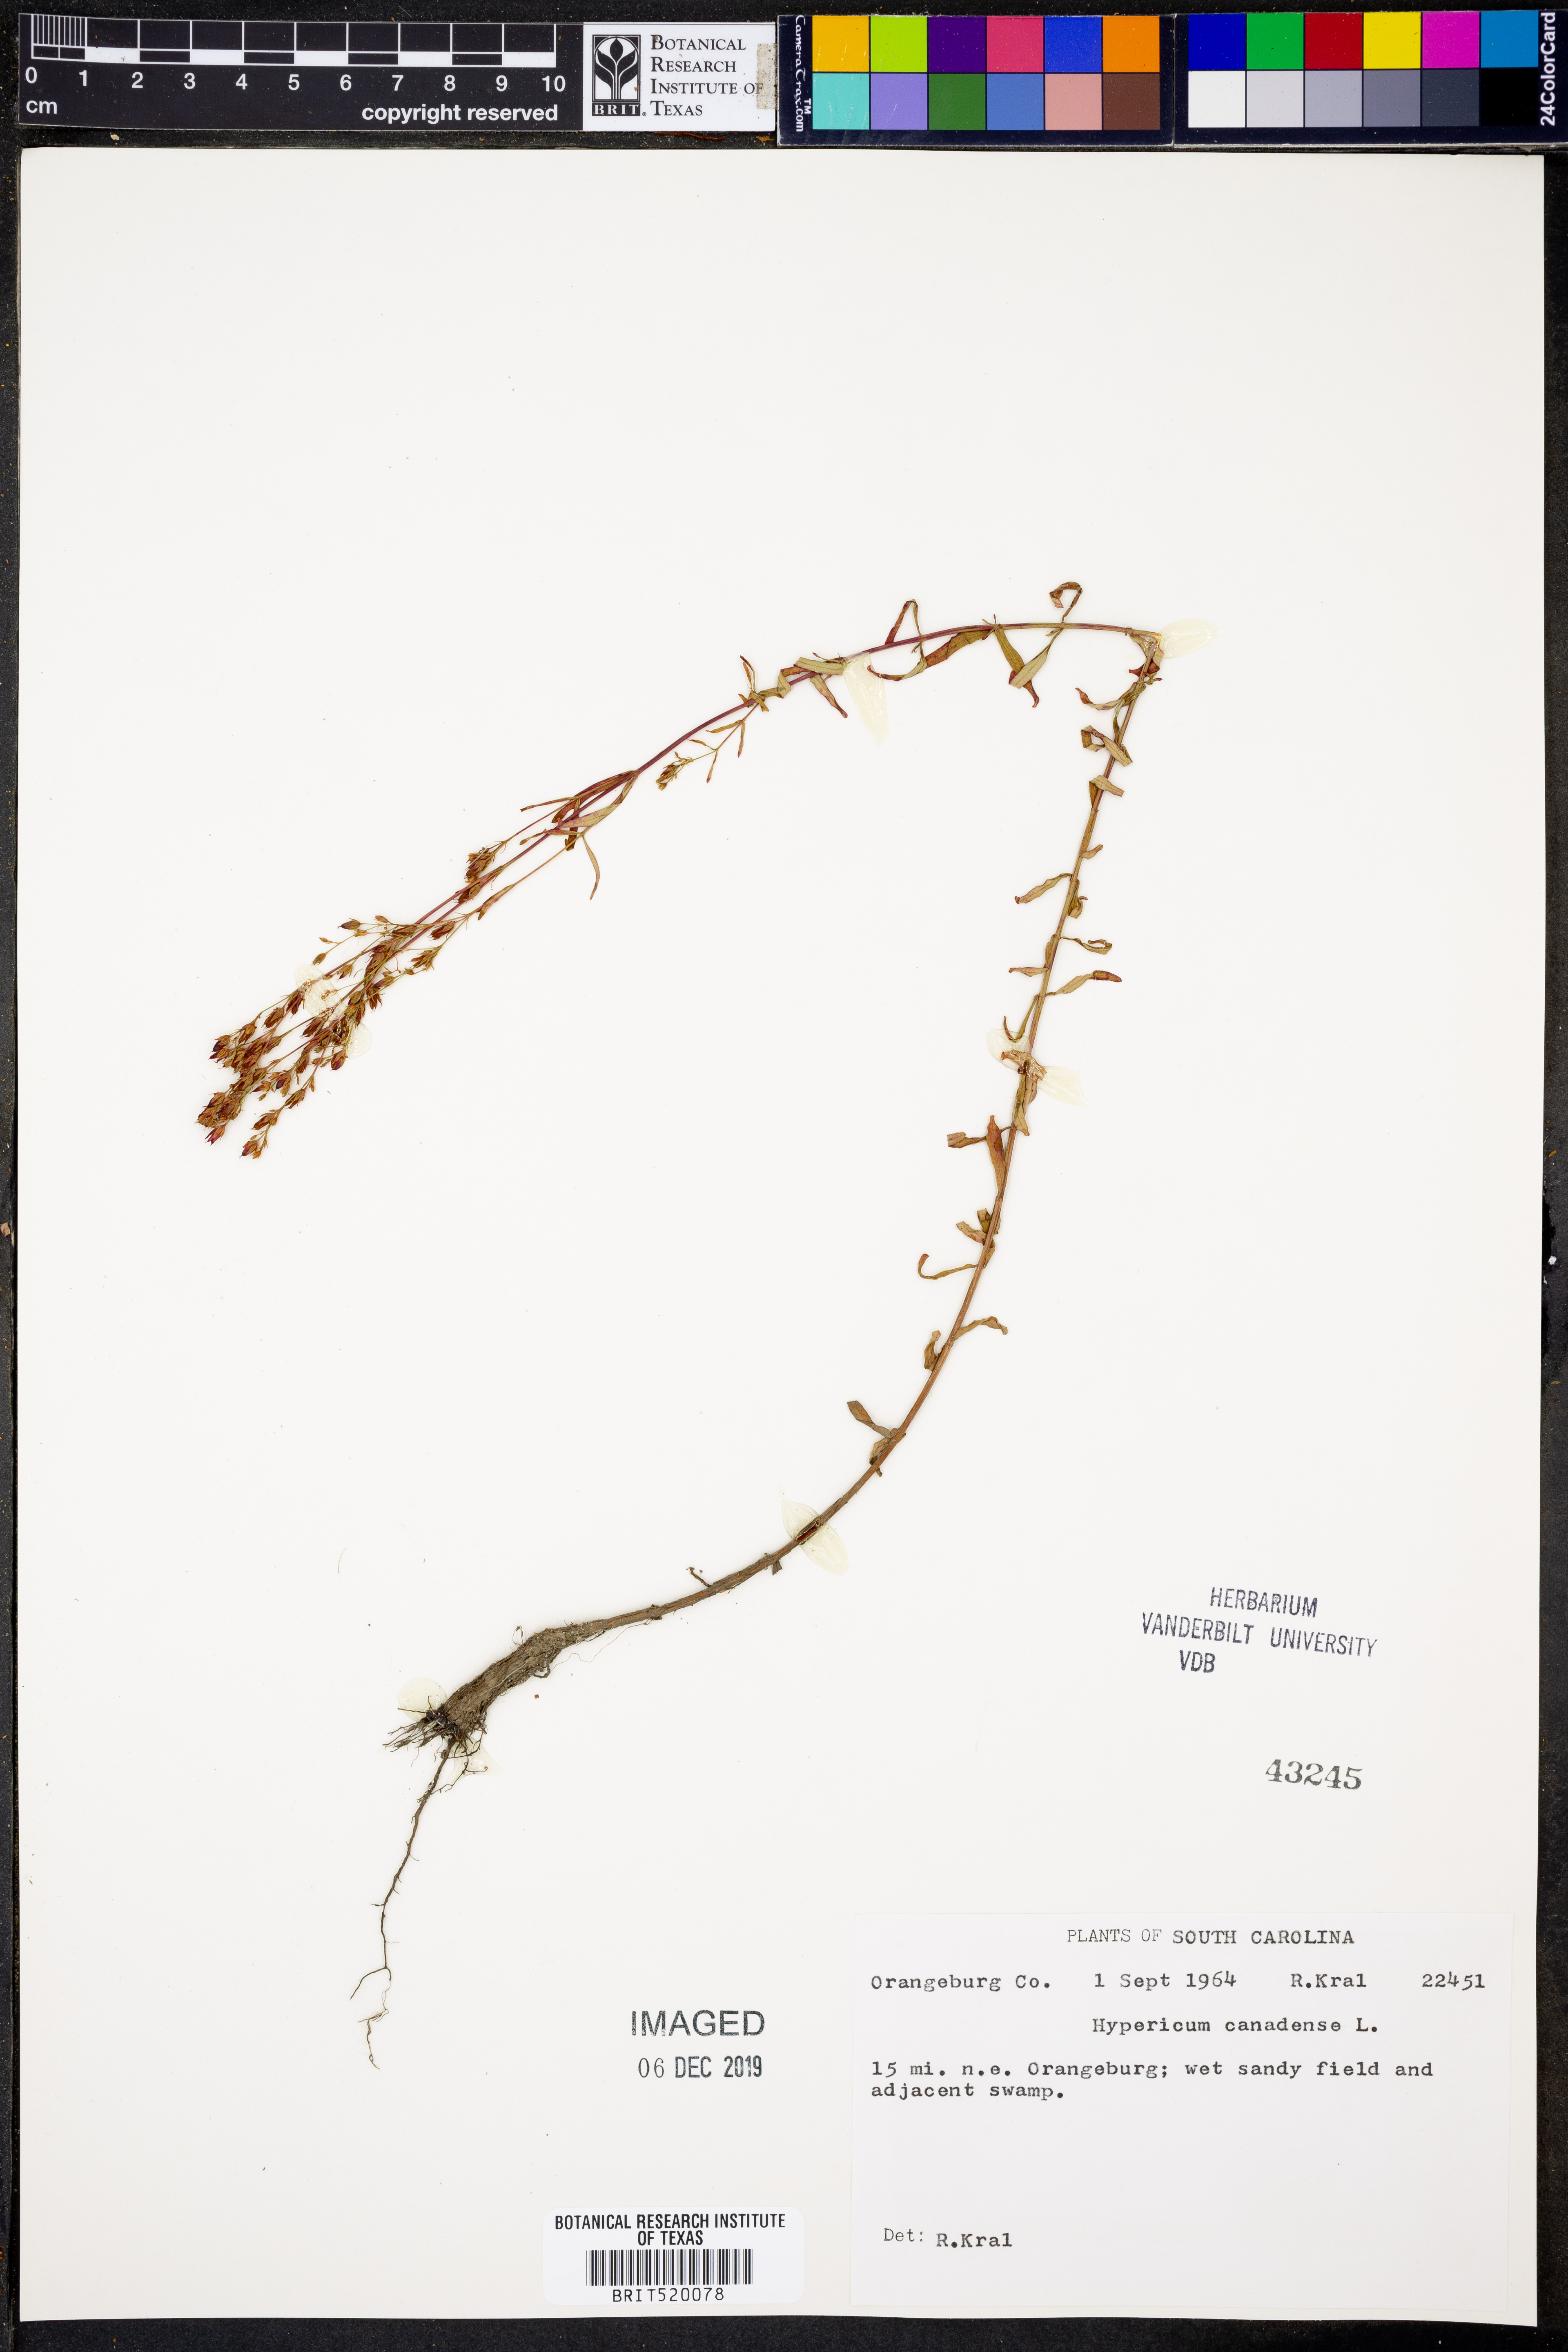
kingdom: Plantae
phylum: Tracheophyta
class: Magnoliopsida
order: Malpighiales
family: Hypericaceae
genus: Hypericum
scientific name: Hypericum canadense
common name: Irish st. john's-wort
